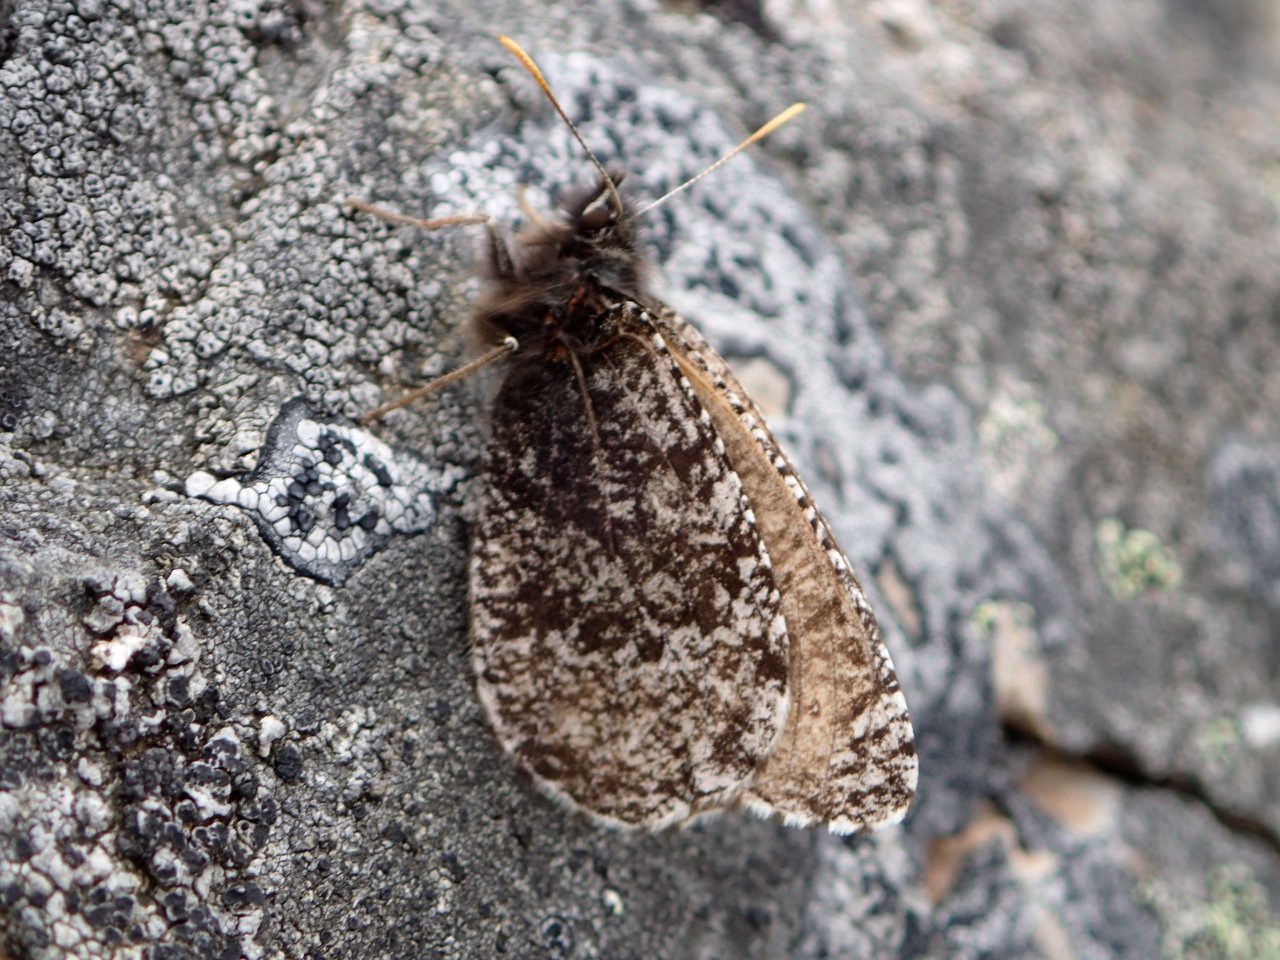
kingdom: Animalia
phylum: Arthropoda
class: Insecta
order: Lepidoptera
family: Nymphalidae
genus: Oeneis
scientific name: Oeneis melissa
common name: Melissa Arctic
